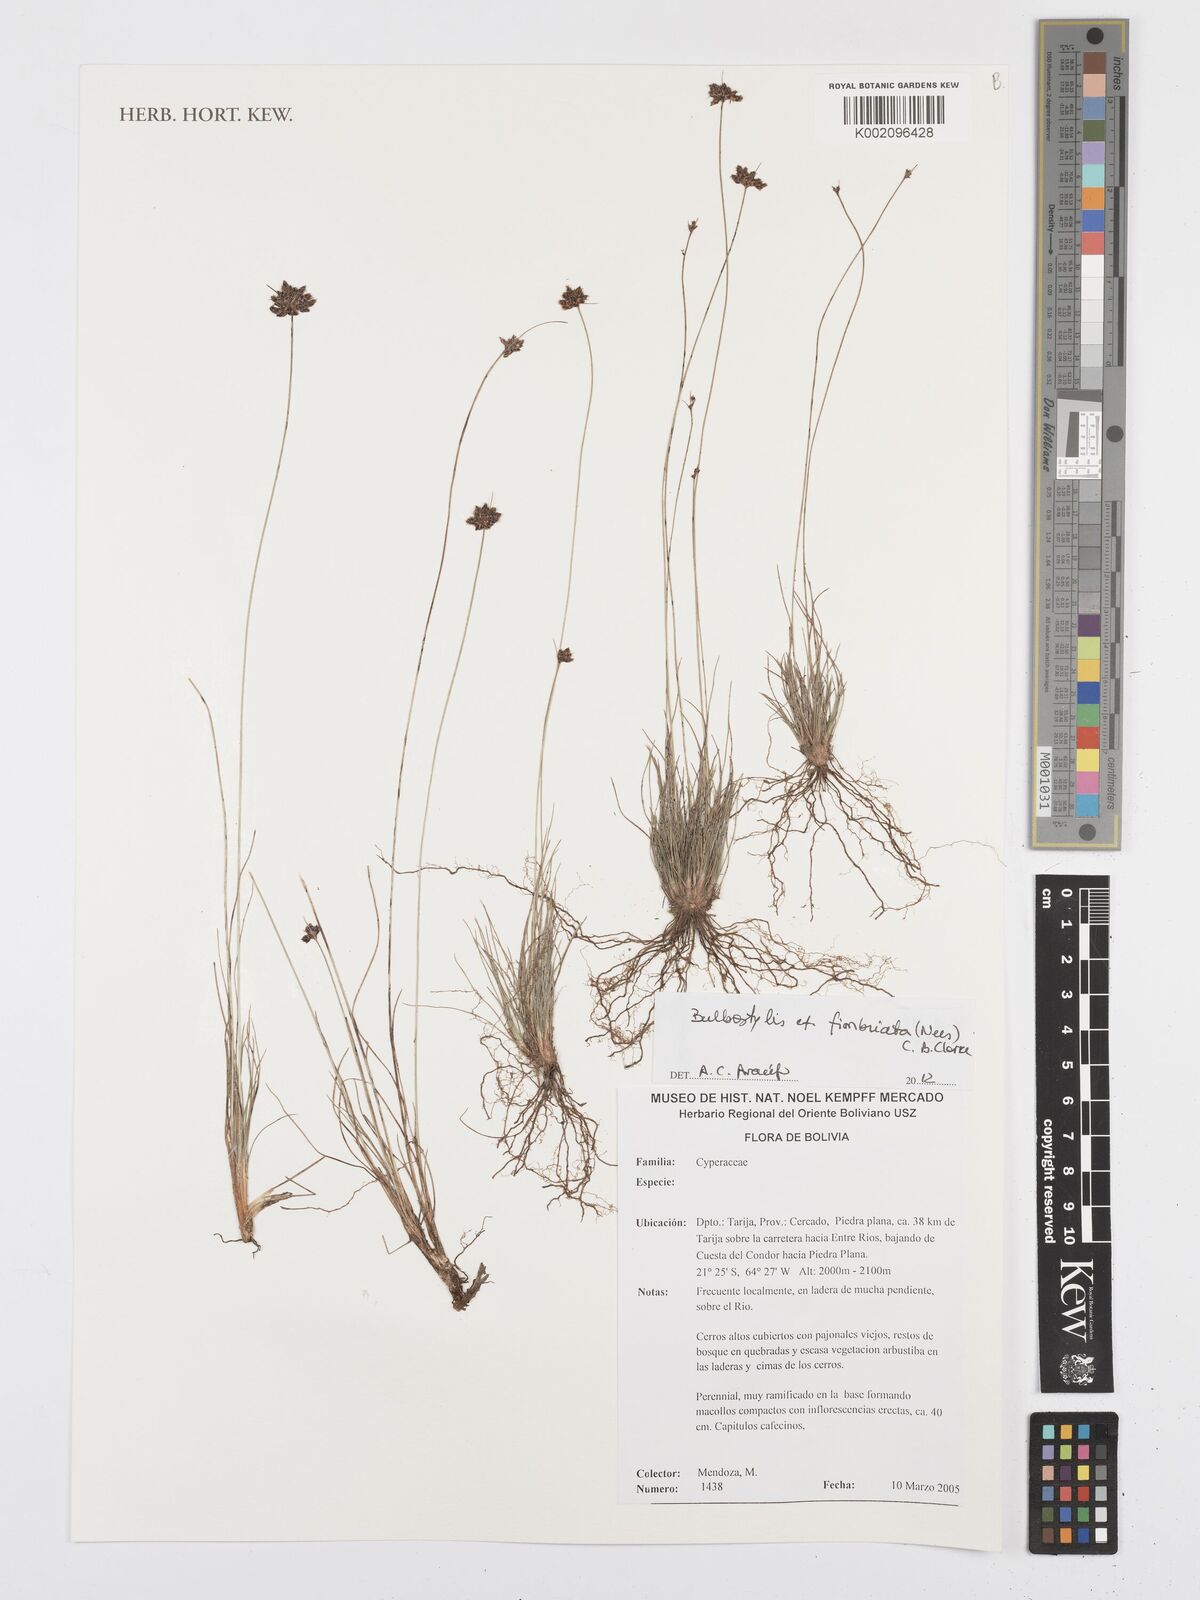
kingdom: Plantae
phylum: Tracheophyta
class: Liliopsida
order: Poales
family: Cyperaceae
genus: Bulbostylis
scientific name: Bulbostylis juncoides
